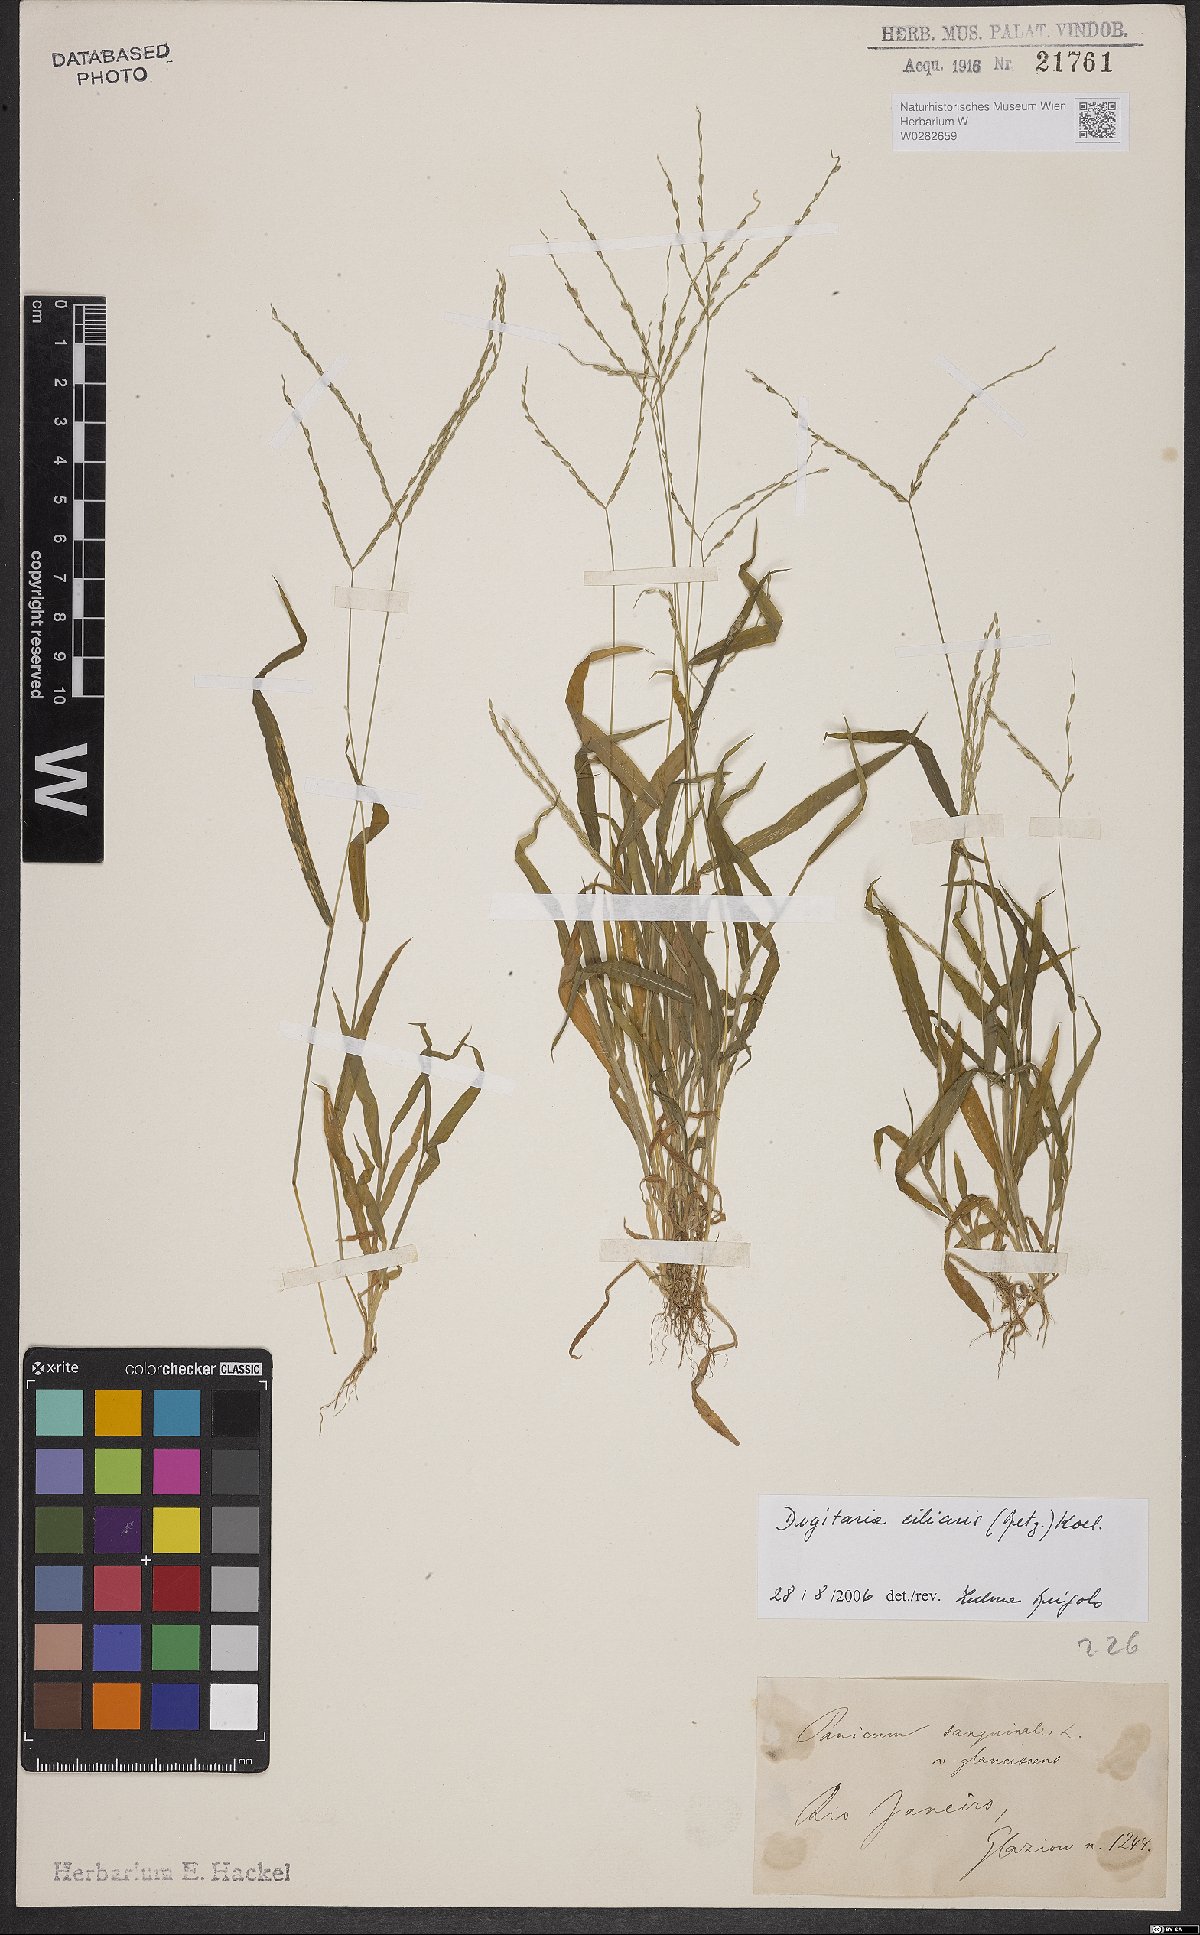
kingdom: Plantae
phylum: Tracheophyta
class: Liliopsida
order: Poales
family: Poaceae
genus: Digitaria
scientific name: Digitaria ciliaris
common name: Tropical finger-grass
